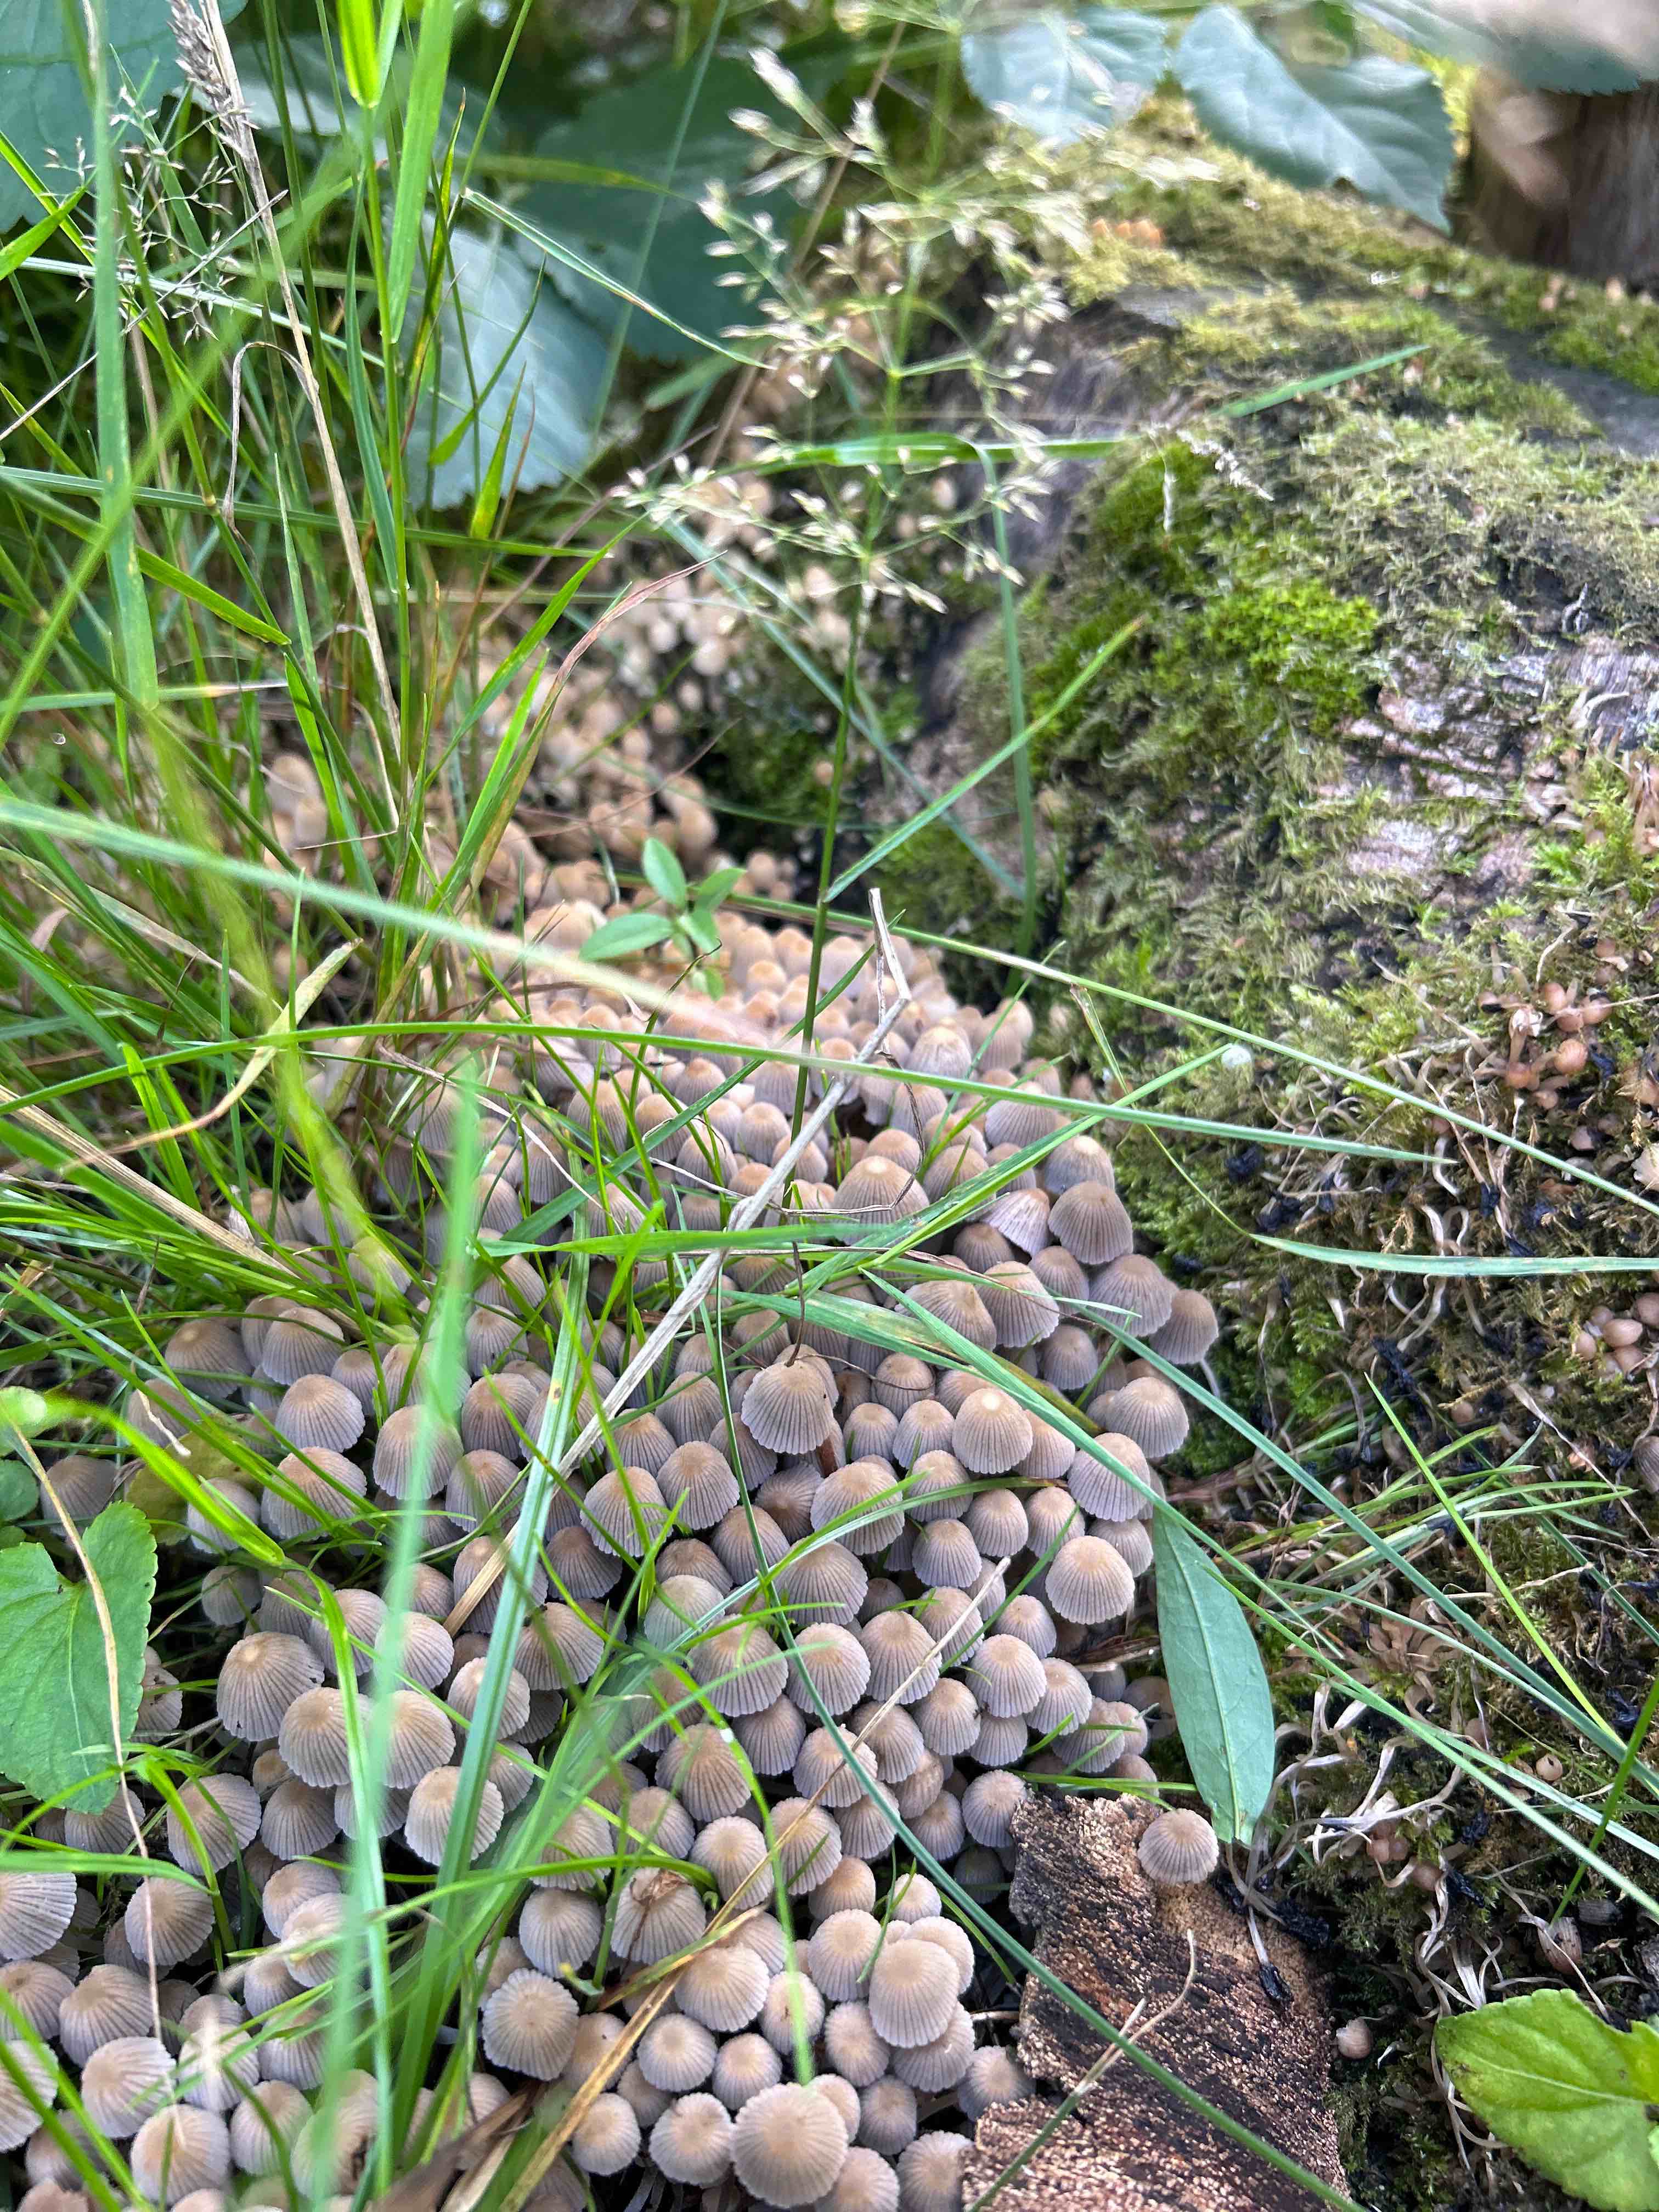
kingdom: Fungi
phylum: Basidiomycota
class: Agaricomycetes
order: Agaricales
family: Psathyrellaceae
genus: Coprinellus
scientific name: Coprinellus disseminatus
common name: bredsået blækhat
